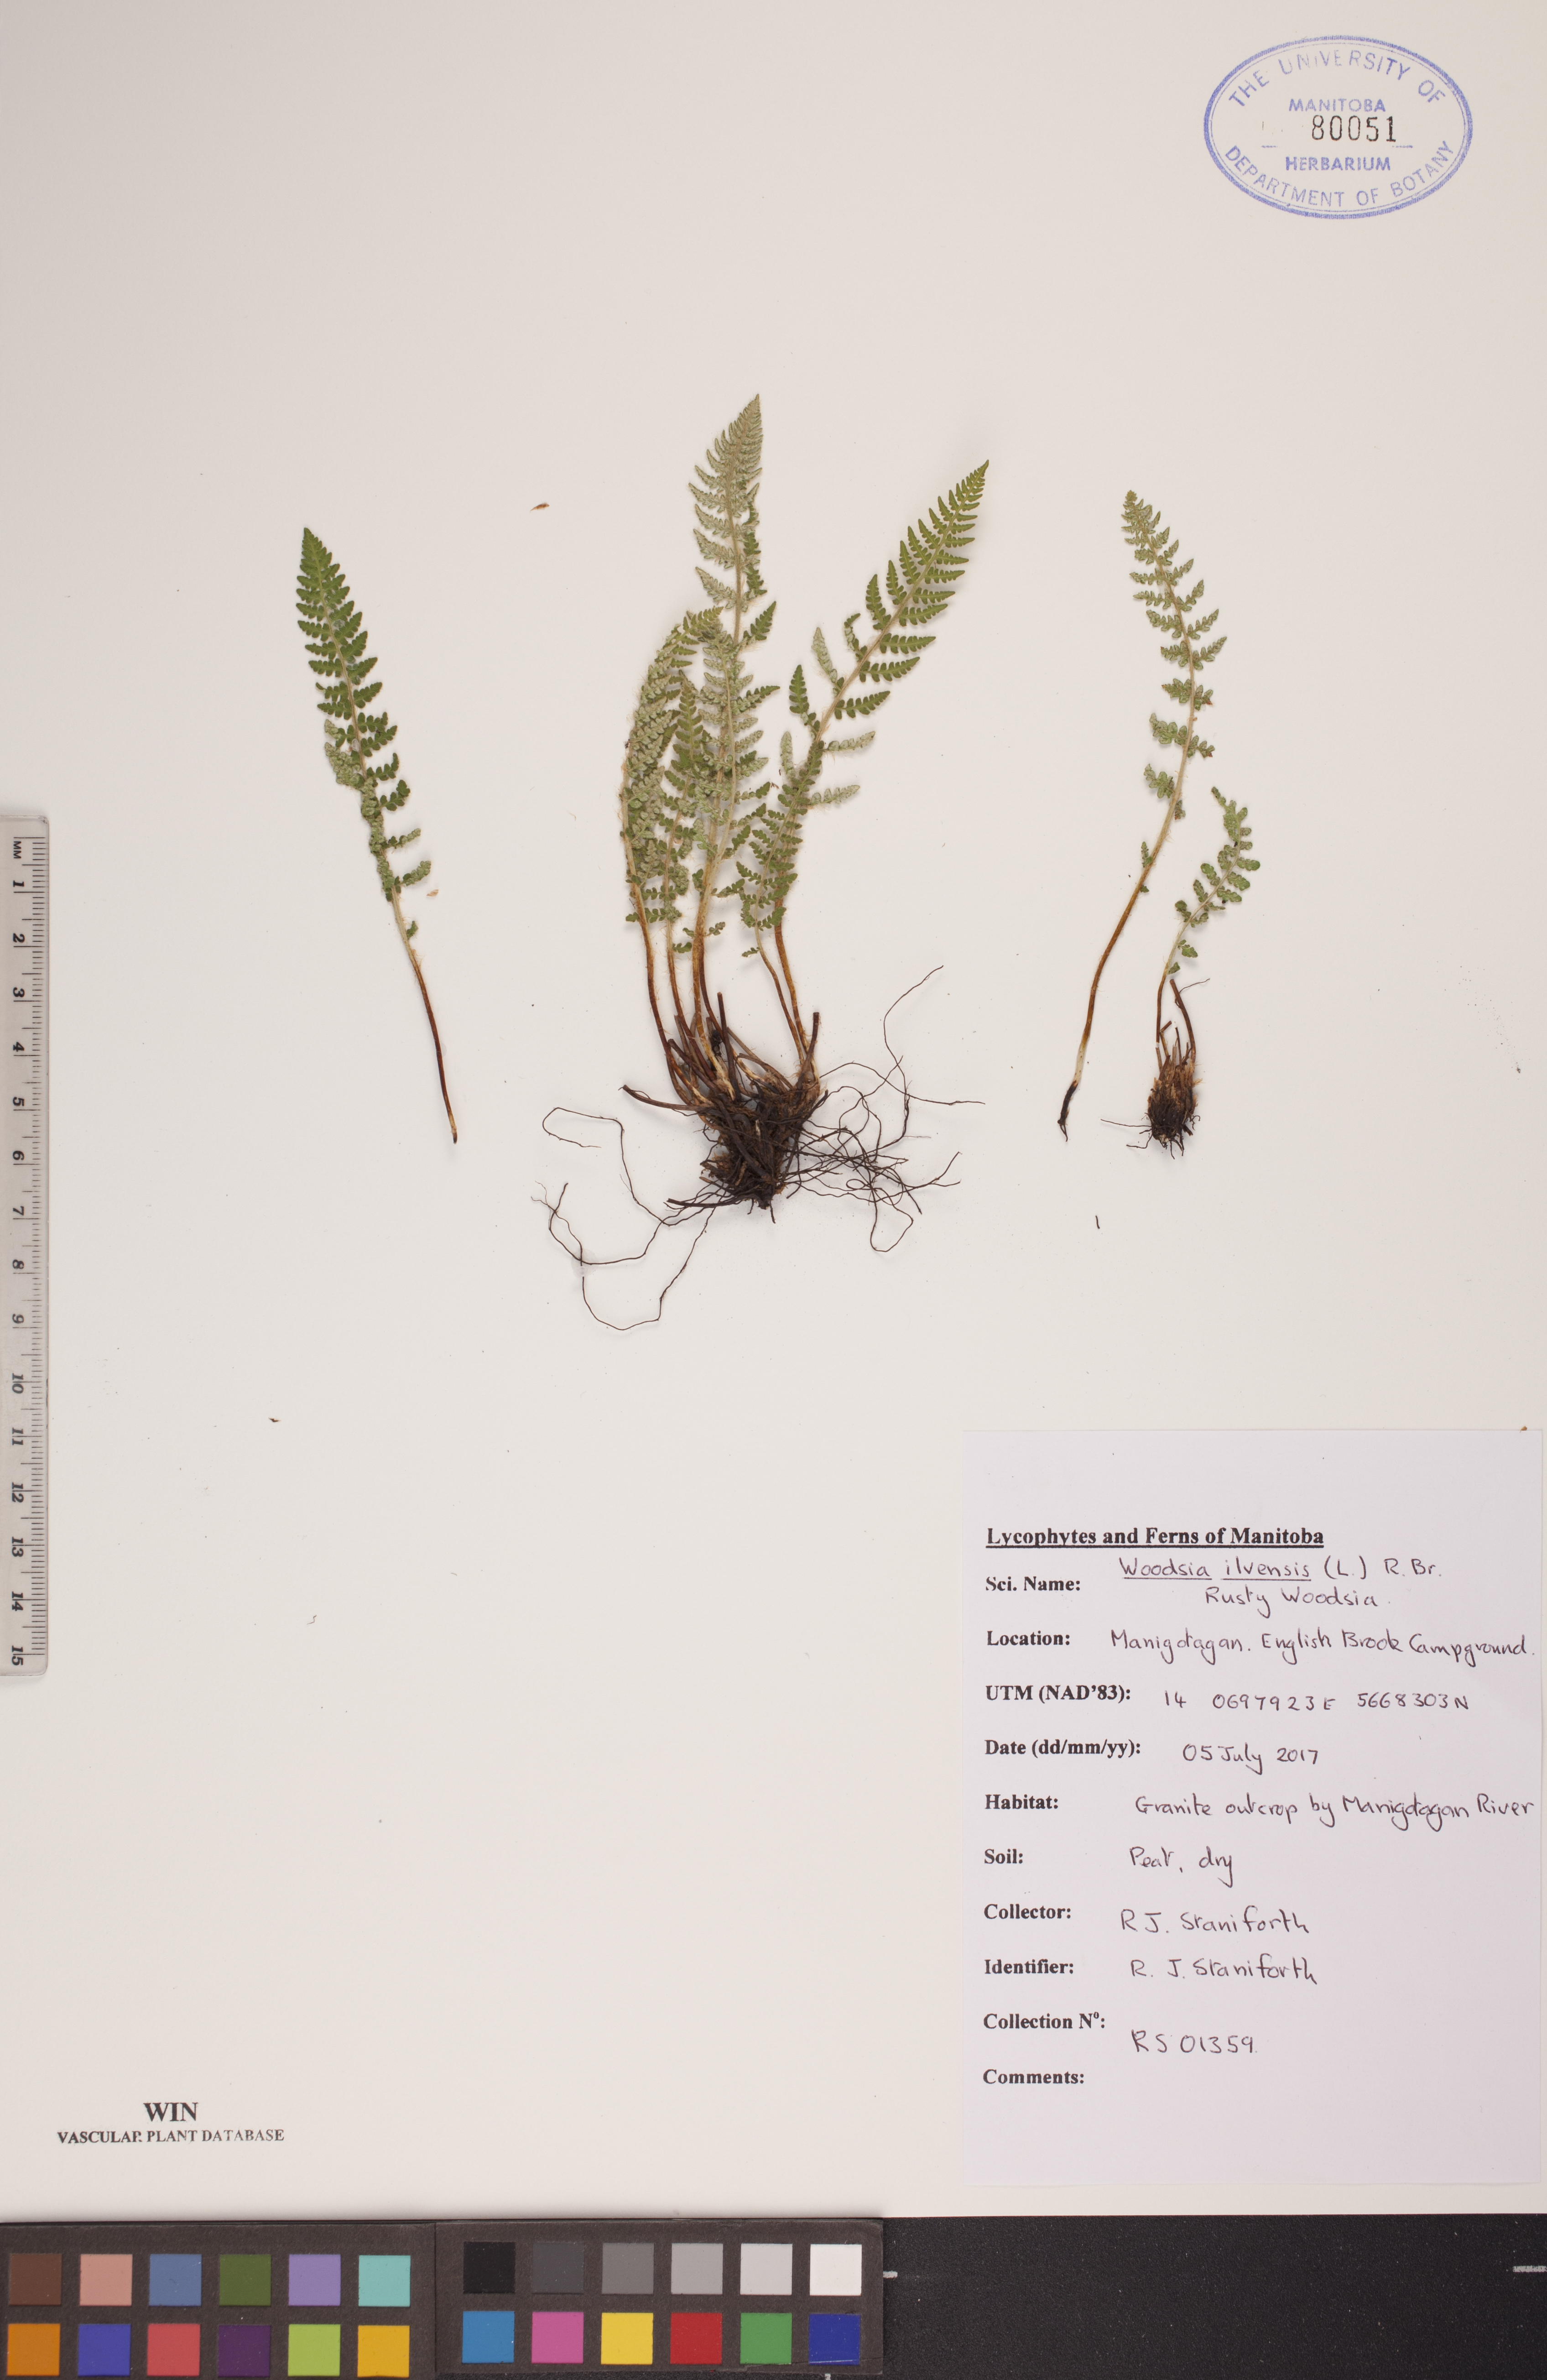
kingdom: Plantae
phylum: Tracheophyta
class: Polypodiopsida
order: Polypodiales
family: Woodsiaceae
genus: Woodsia
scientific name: Woodsia ilvensis
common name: Fragrant woodsia
